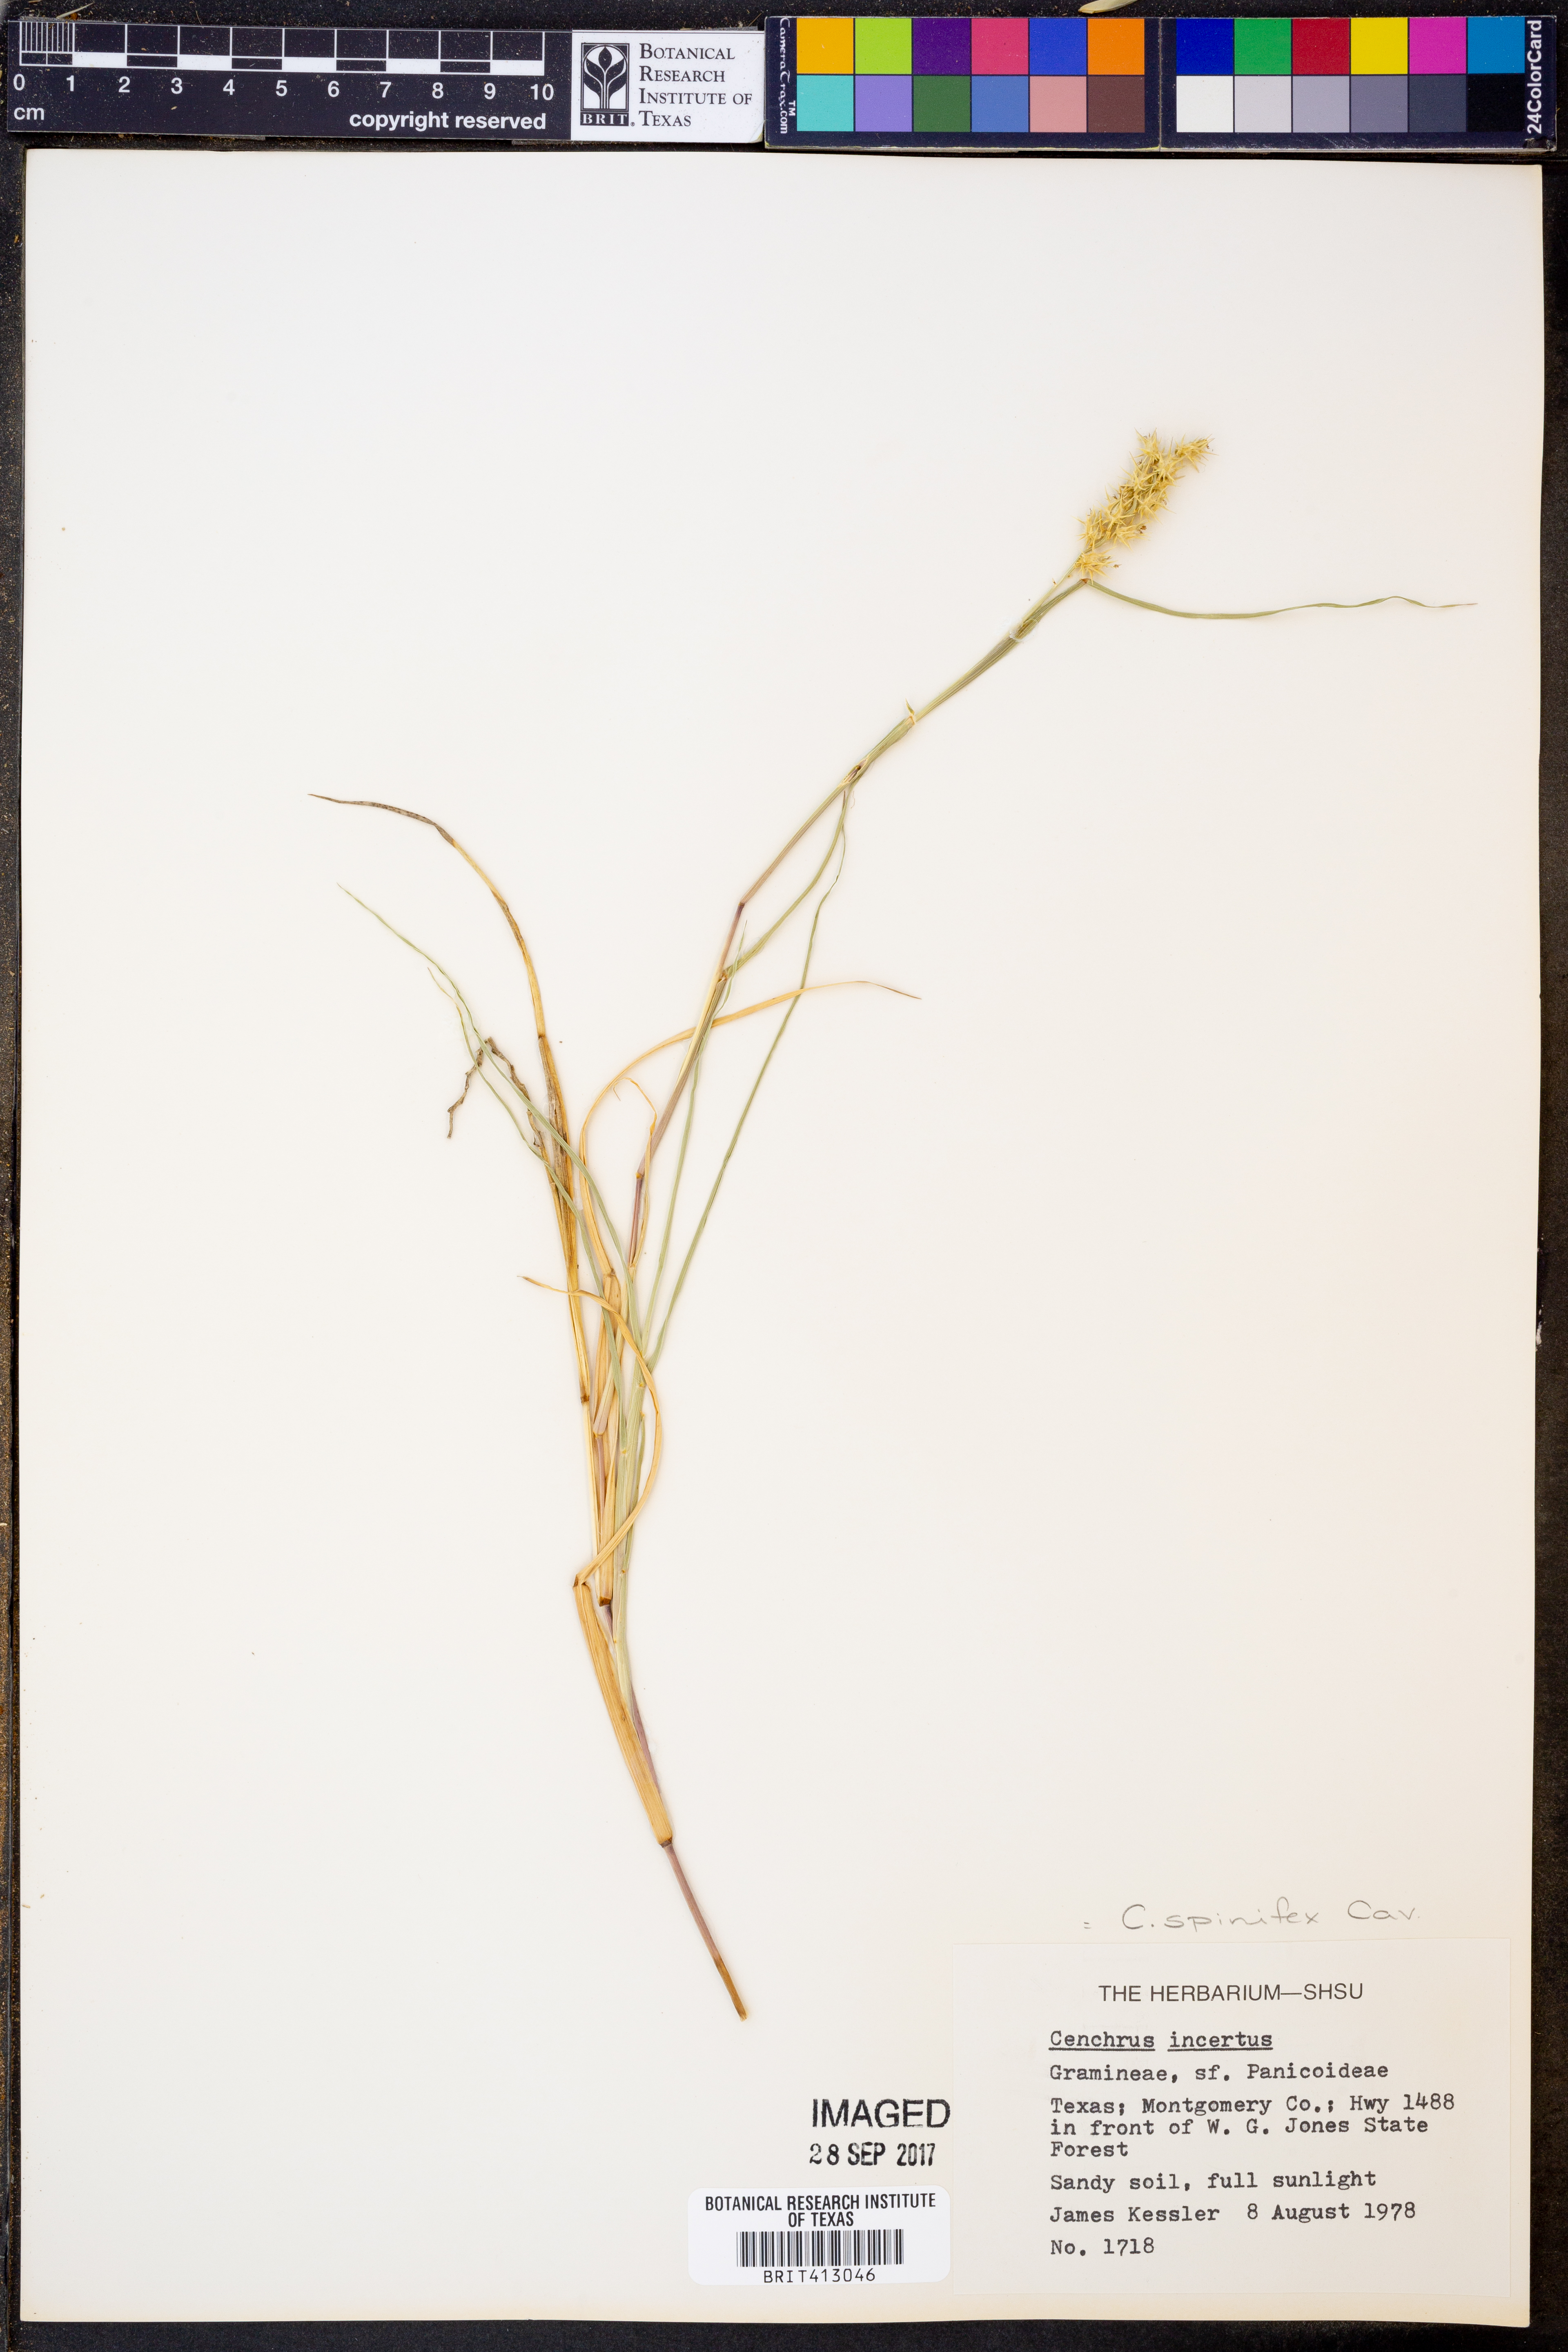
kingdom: Plantae
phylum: Tracheophyta
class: Liliopsida
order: Poales
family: Poaceae
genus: Cenchrus
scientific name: Cenchrus spinifex
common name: Coast sandbur
